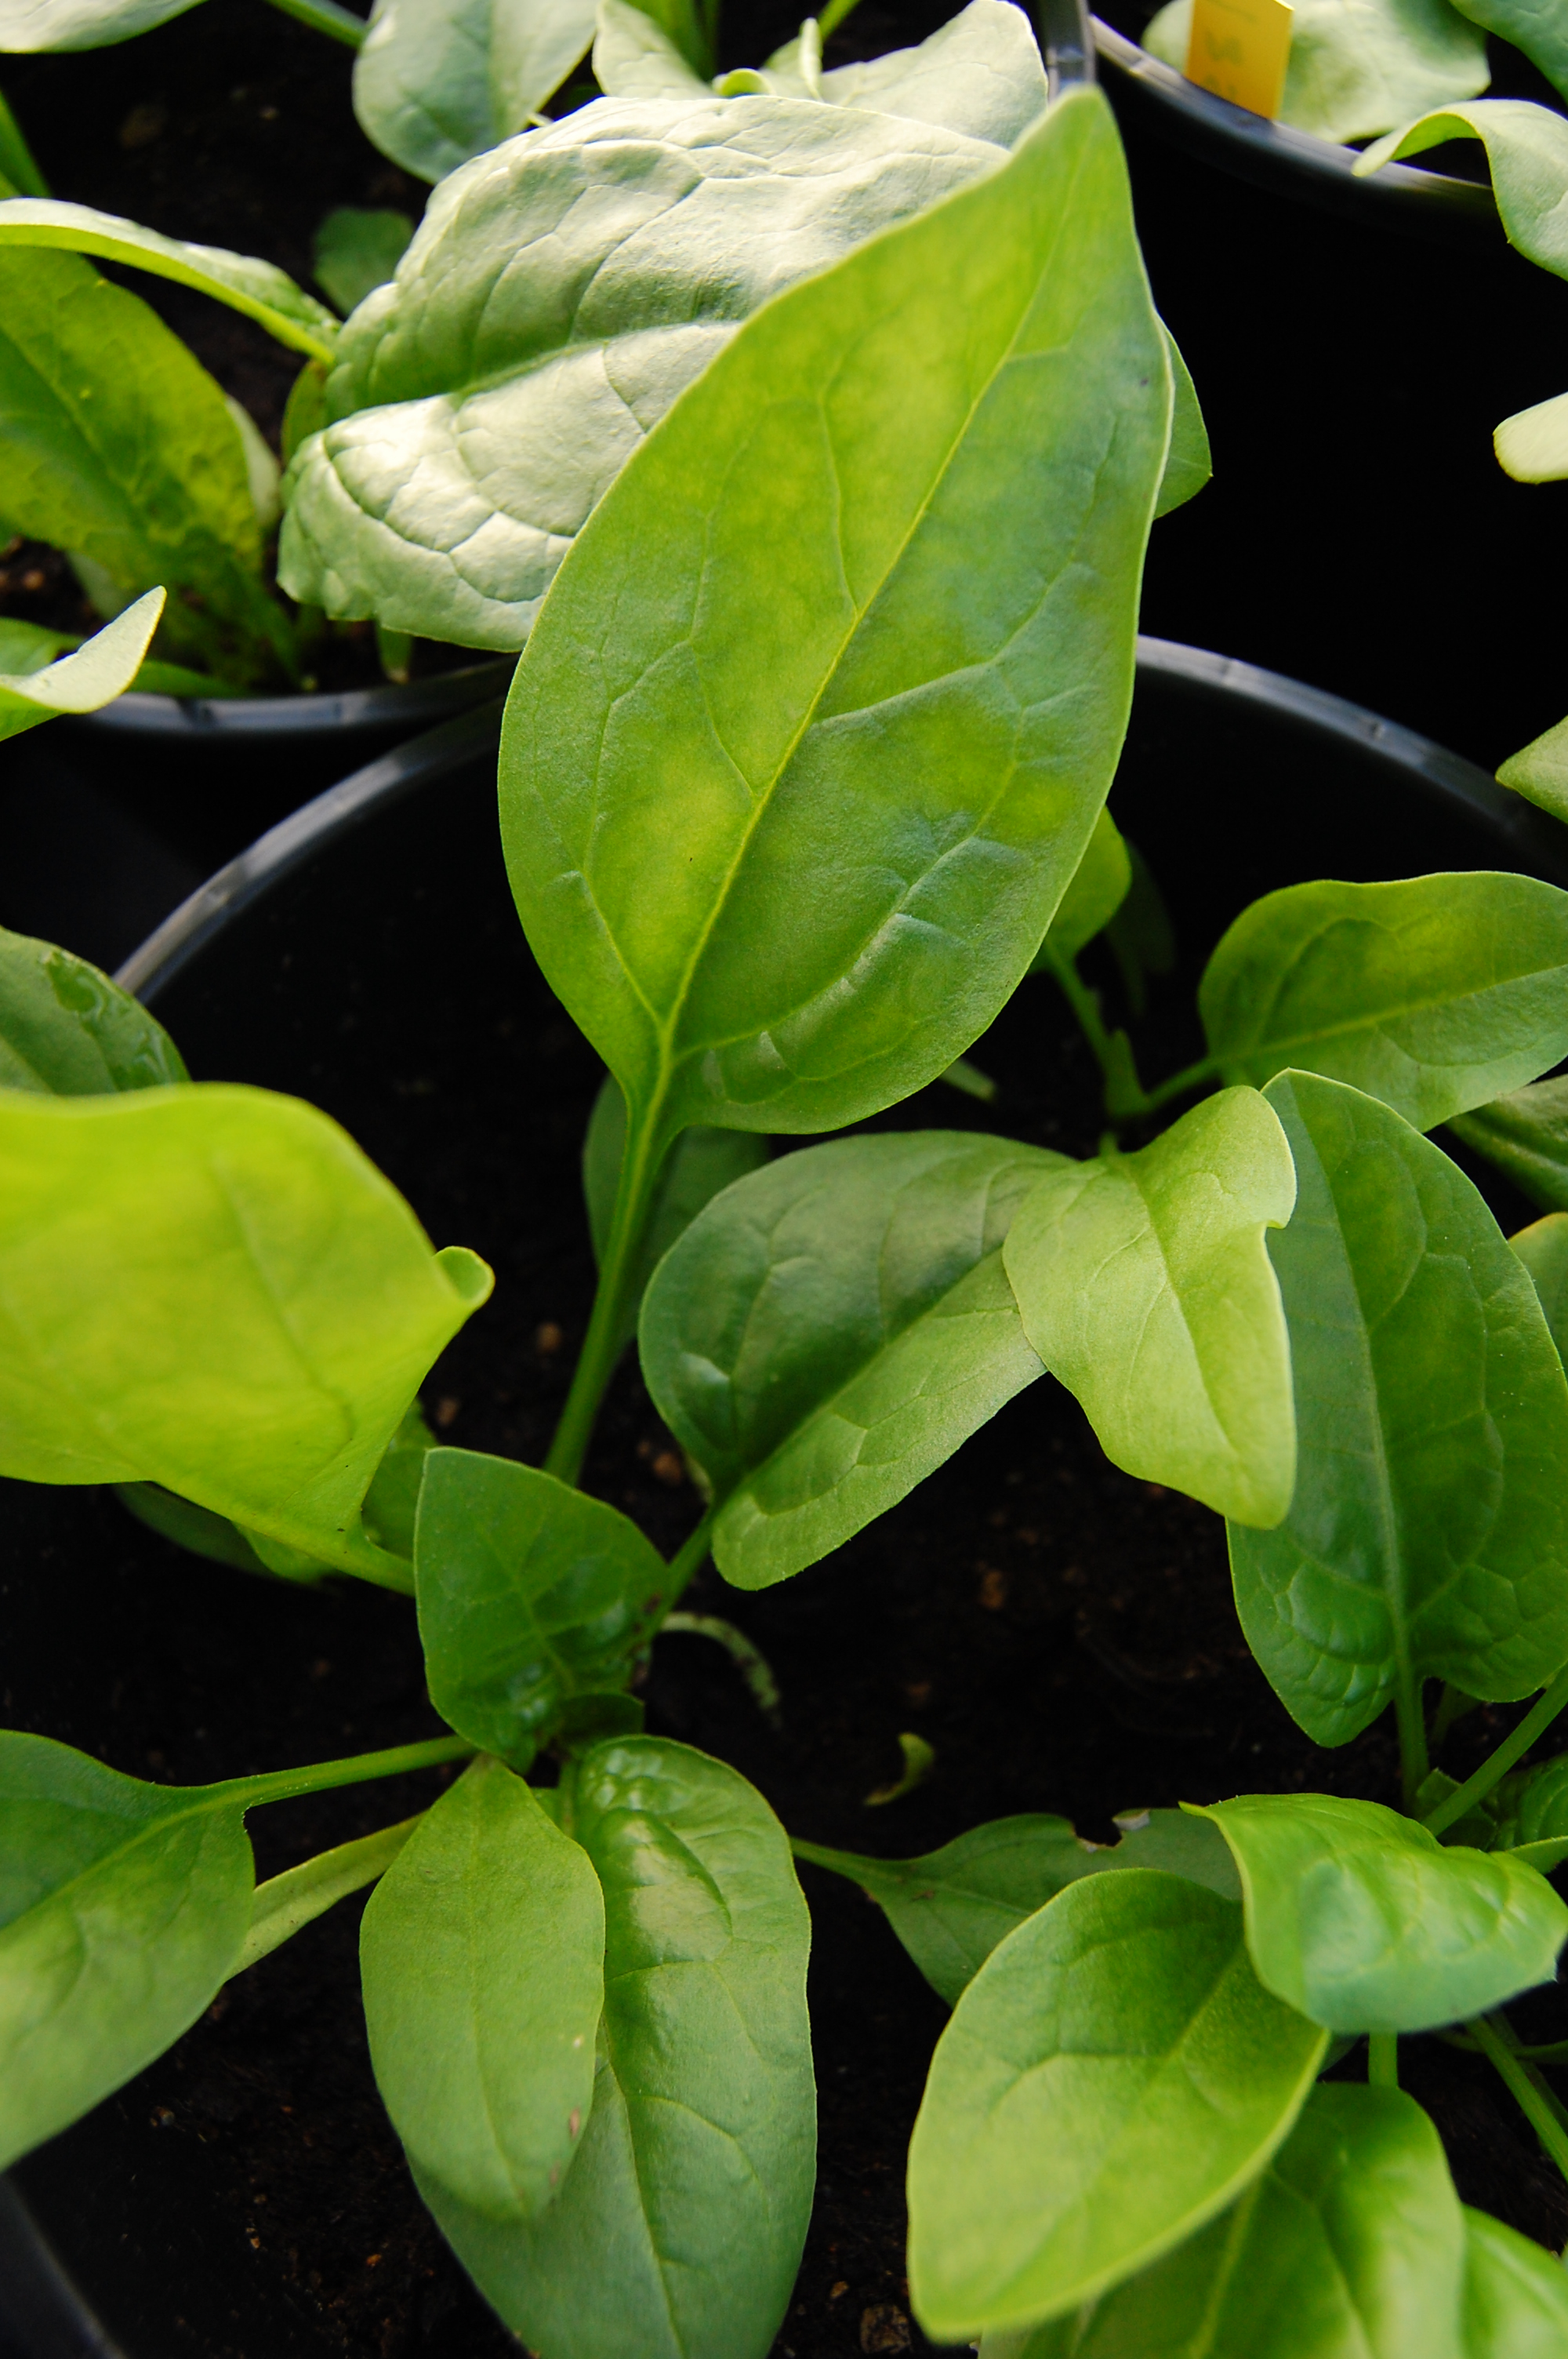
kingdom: Plantae
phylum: Tracheophyta
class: Magnoliopsida
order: Caryophyllales
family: Amaranthaceae
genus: Spinacia
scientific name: Spinacia oleracea
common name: Spinach
